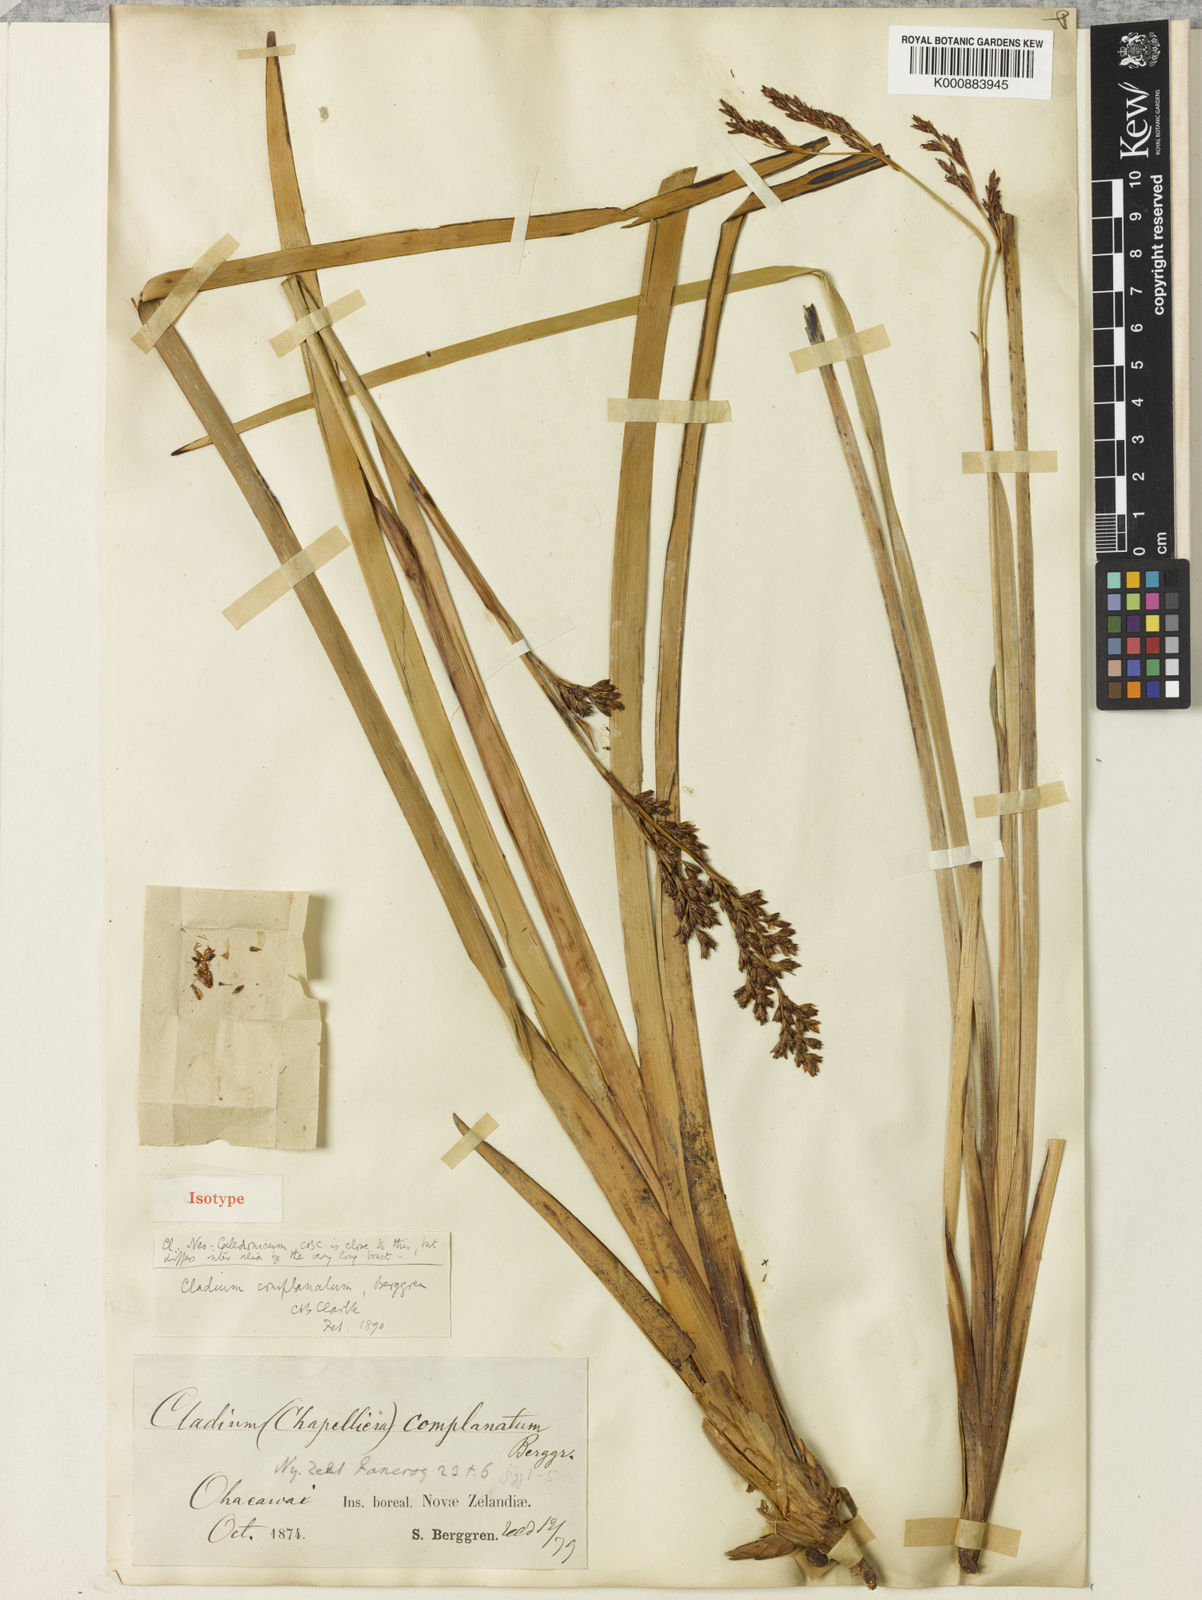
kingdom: Plantae
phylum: Tracheophyta
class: Liliopsida
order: Poales
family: Cyperaceae
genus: Machaerina
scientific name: Machaerina complanata
